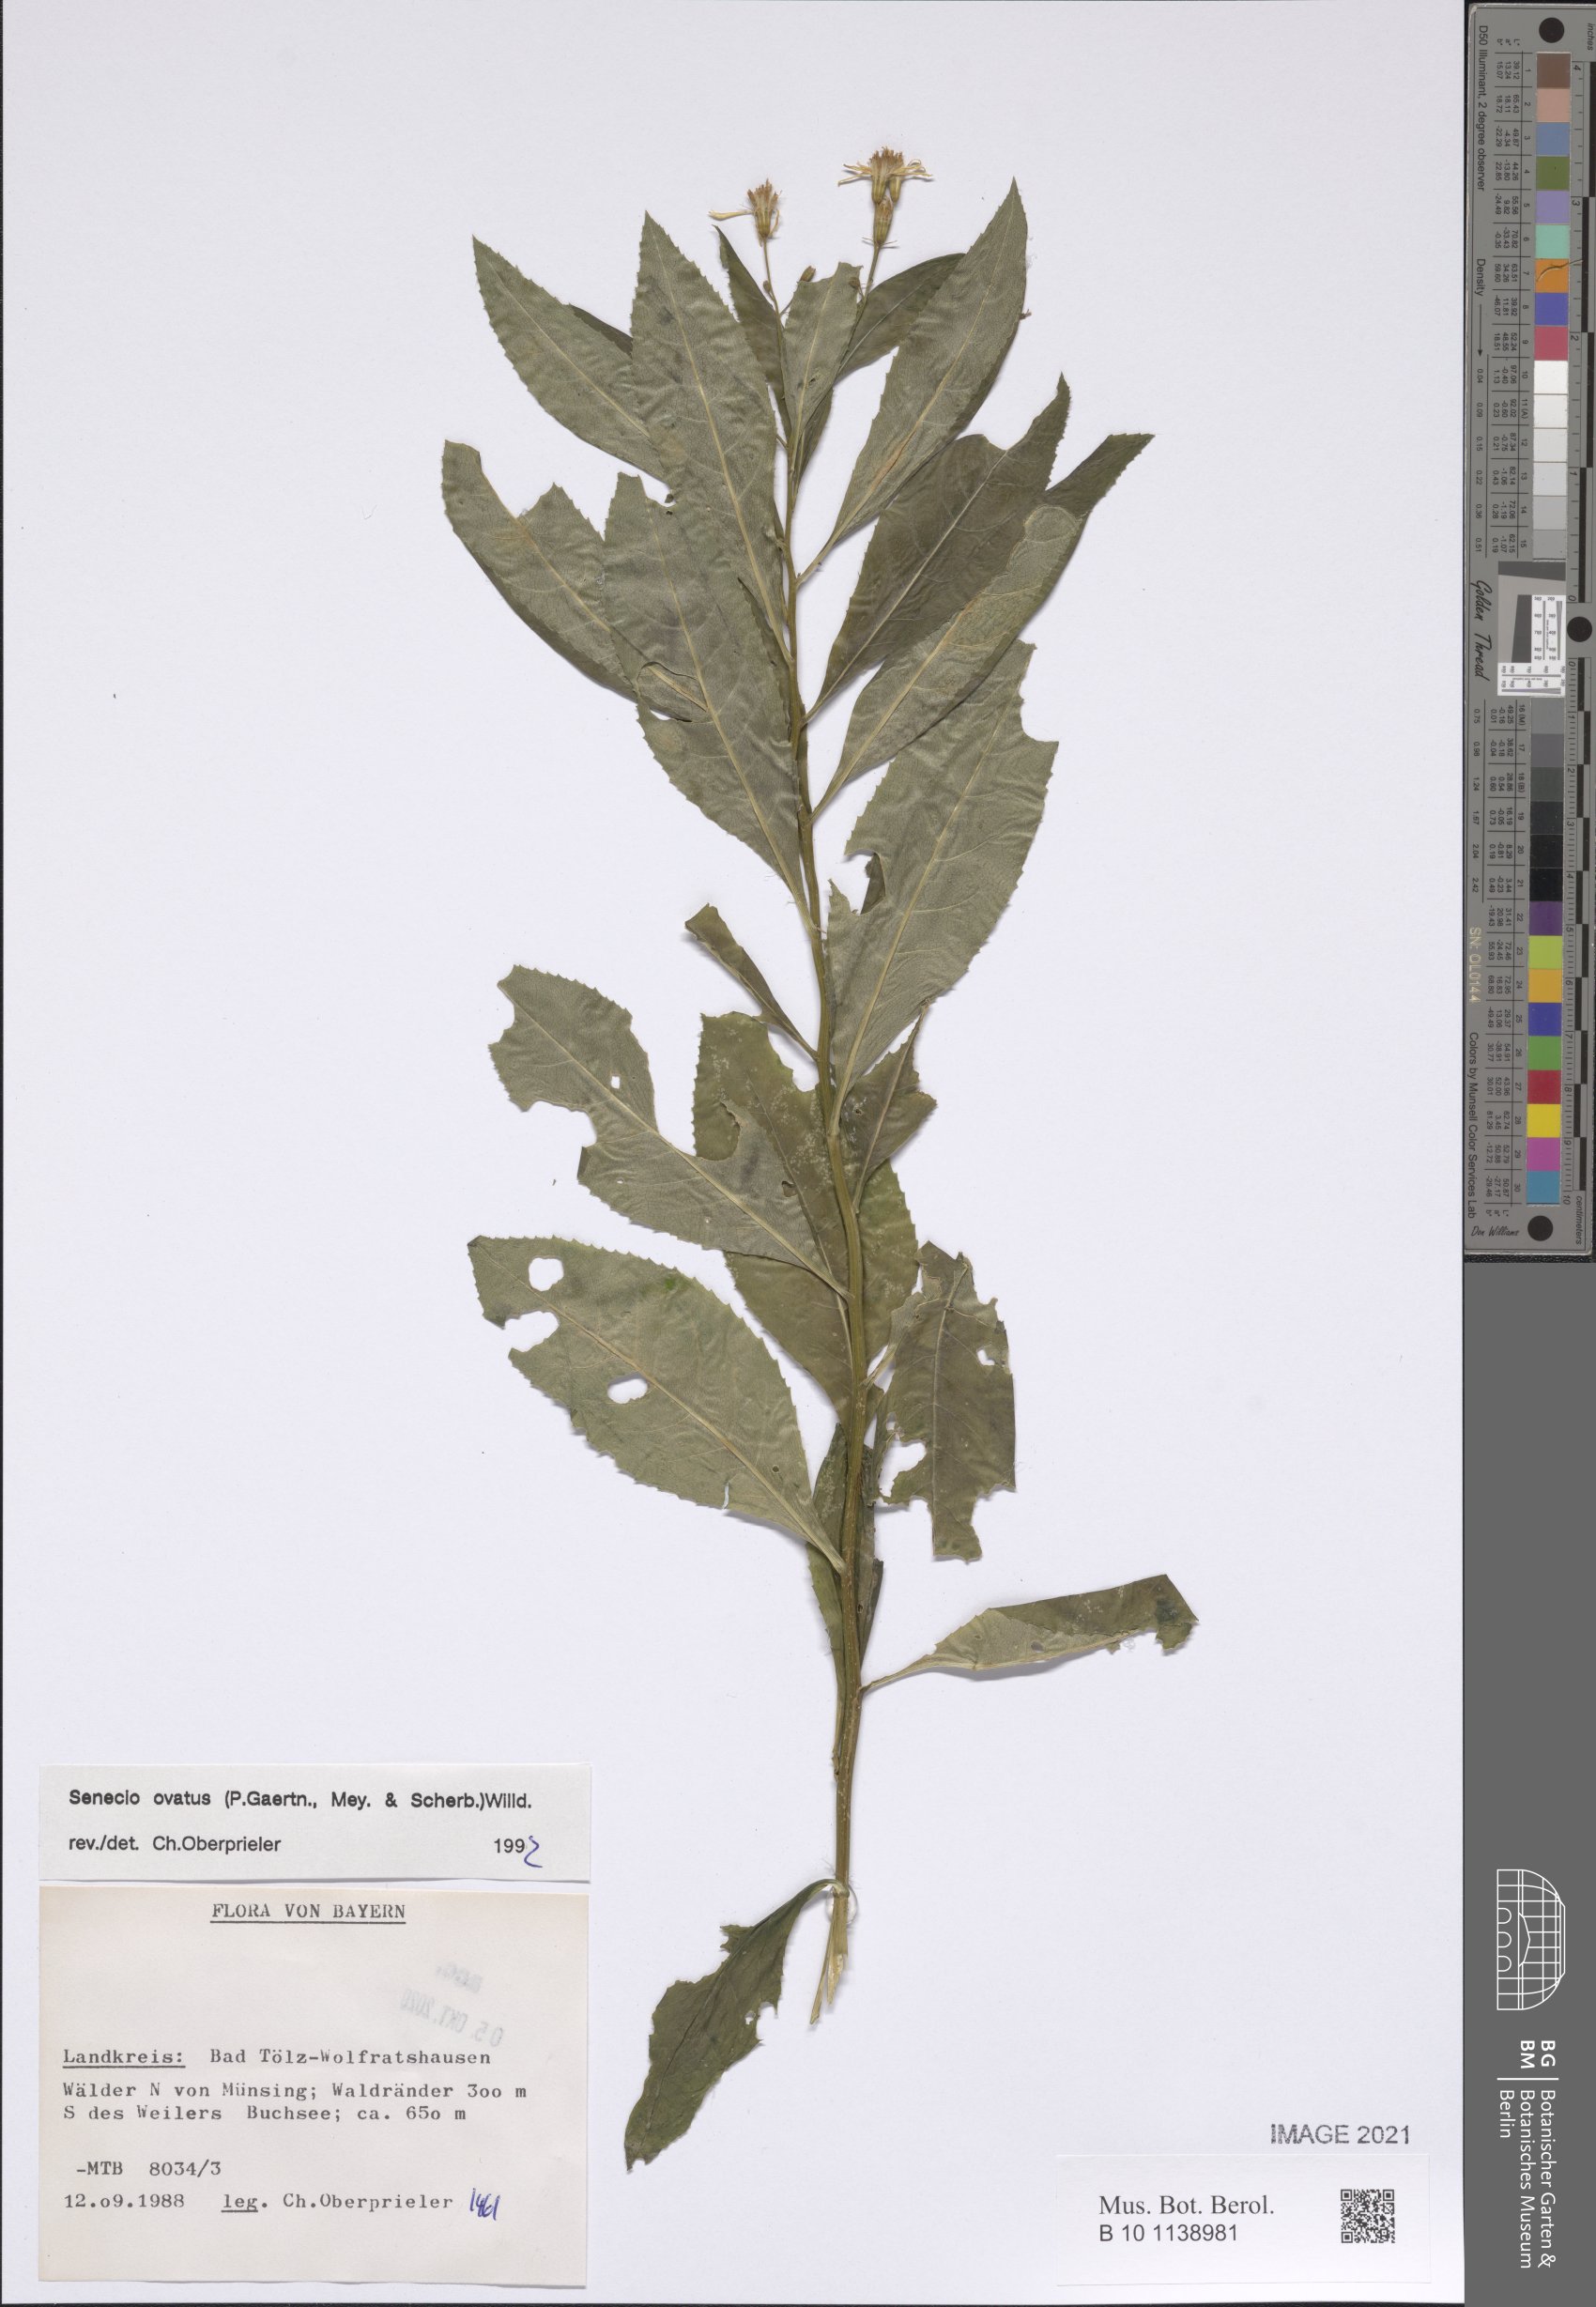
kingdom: Plantae
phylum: Tracheophyta
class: Magnoliopsida
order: Asterales
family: Asteraceae
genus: Senecio
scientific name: Senecio ovatus
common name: Wood ragwort
